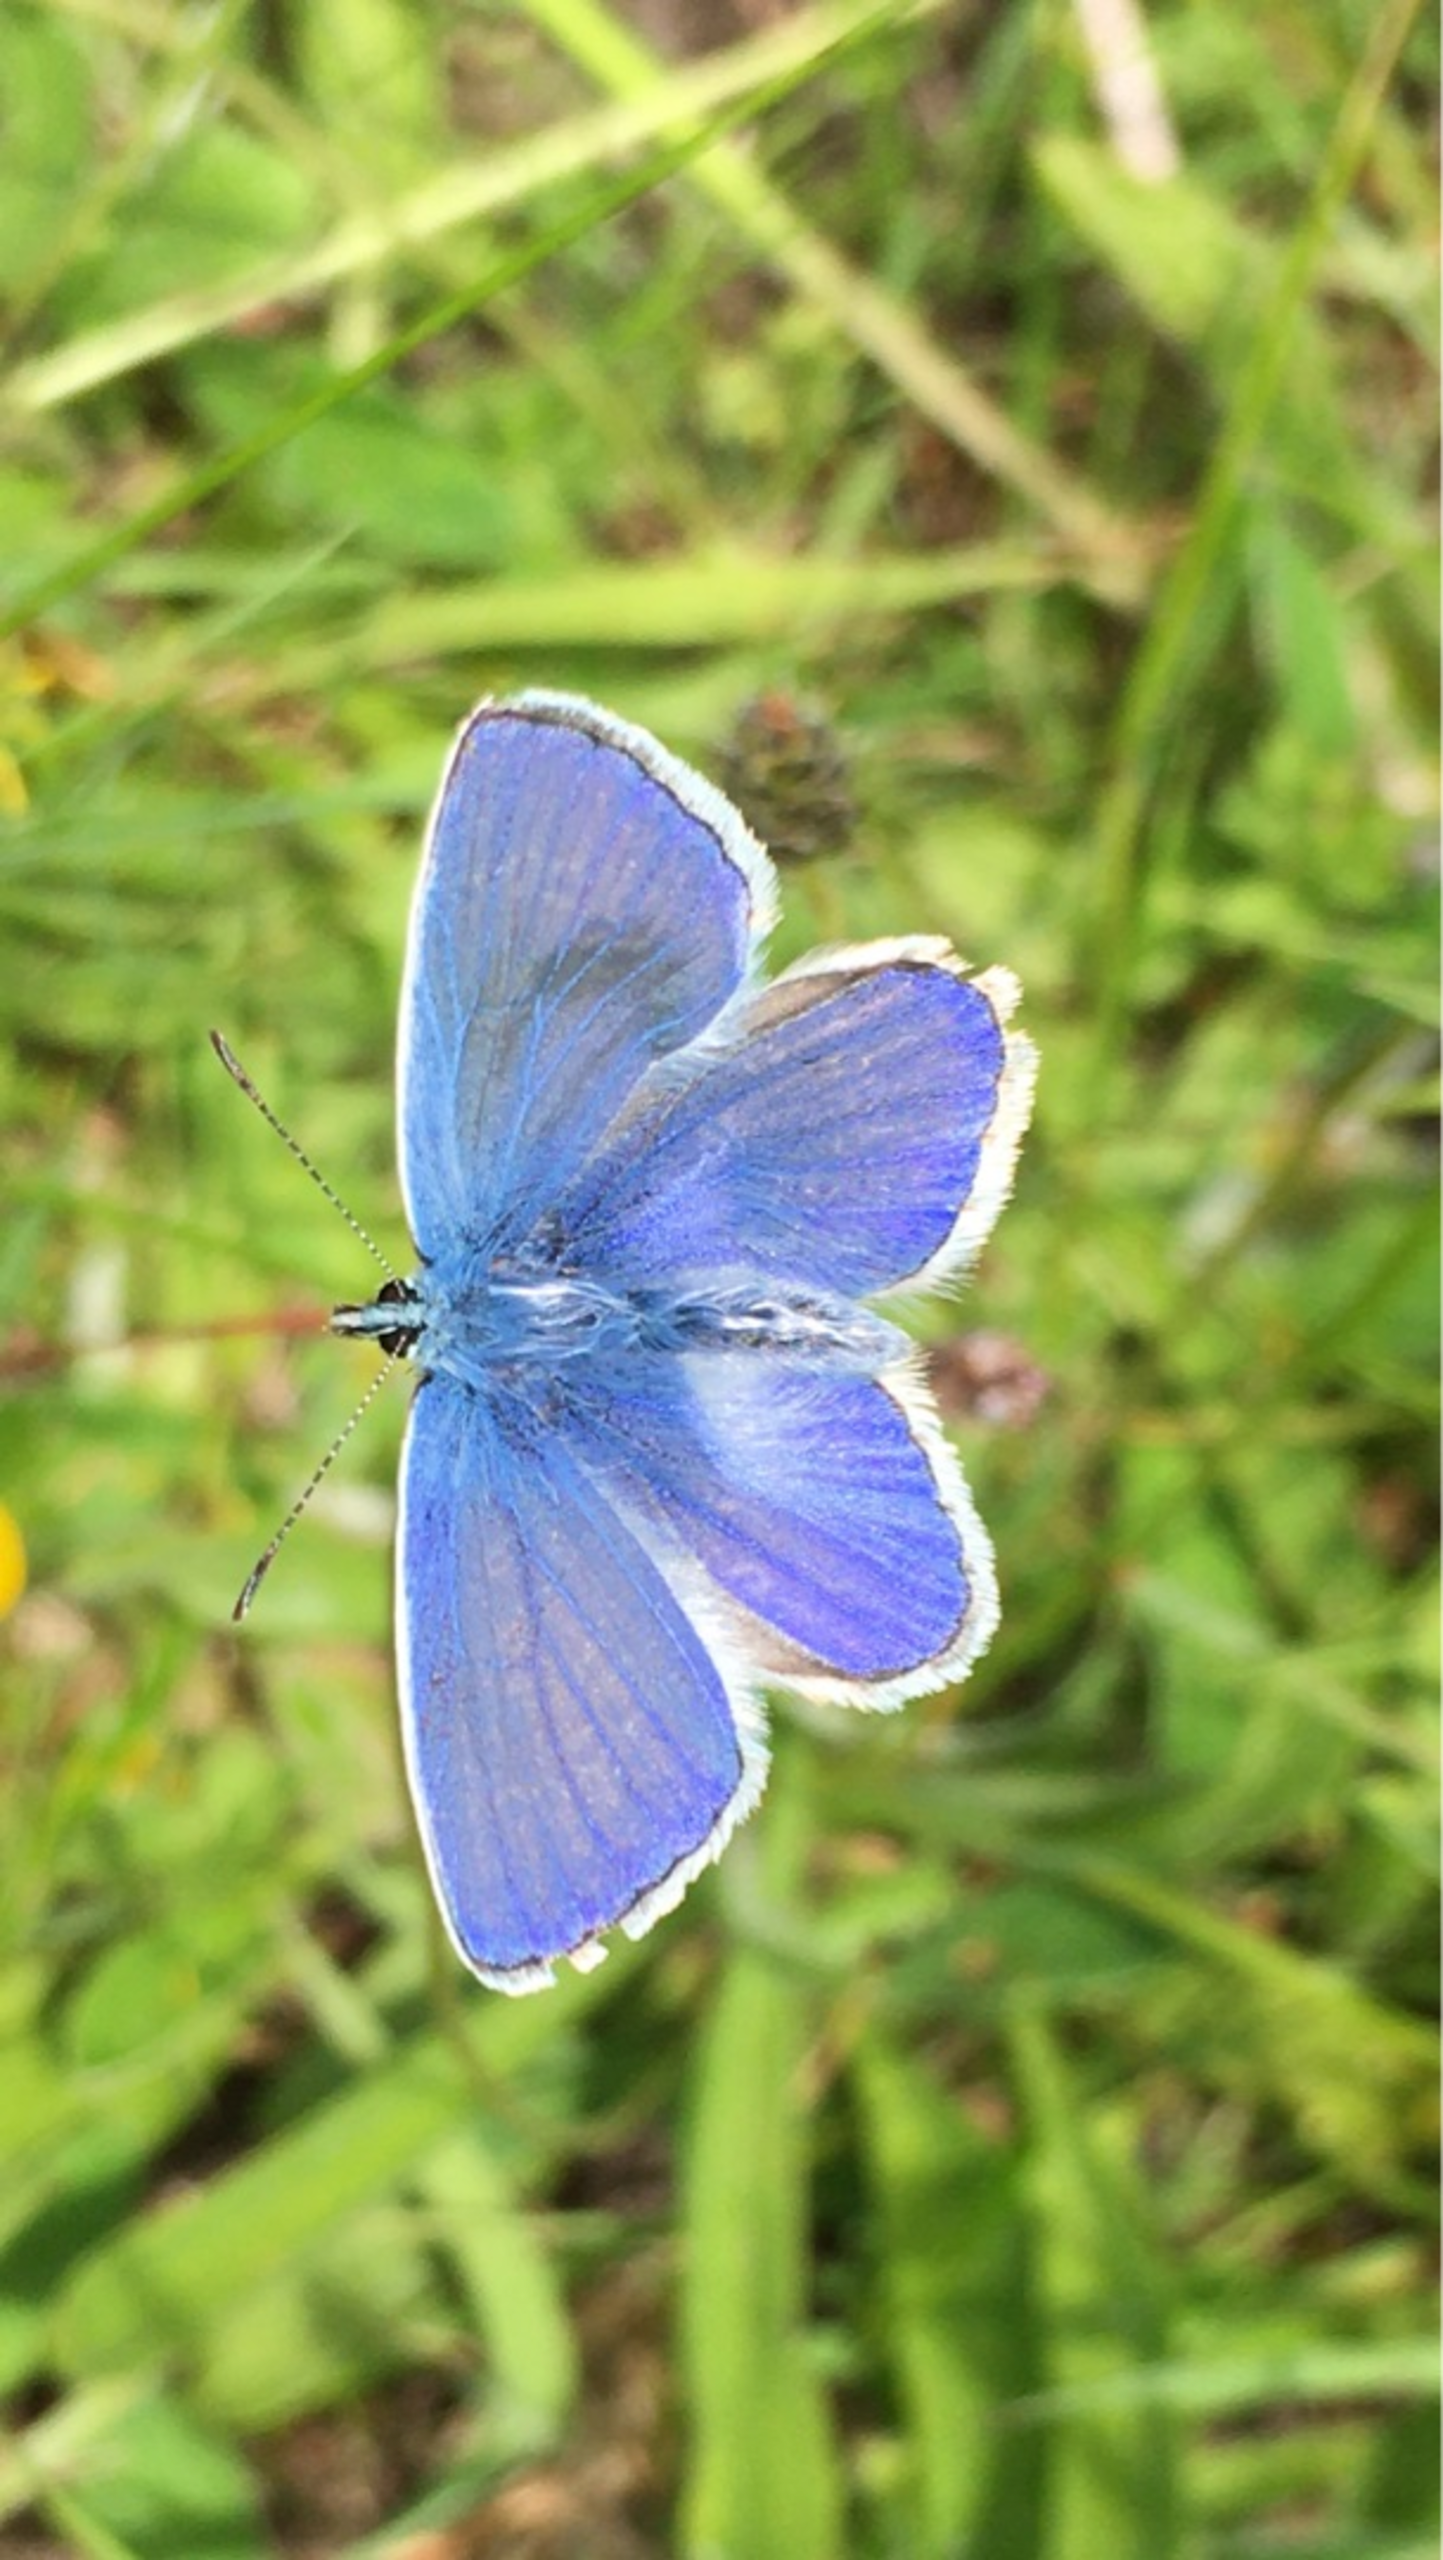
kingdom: Animalia
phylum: Arthropoda
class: Insecta
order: Lepidoptera
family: Lycaenidae
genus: Polyommatus
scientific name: Polyommatus icarus
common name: Almindelig blåfugl
